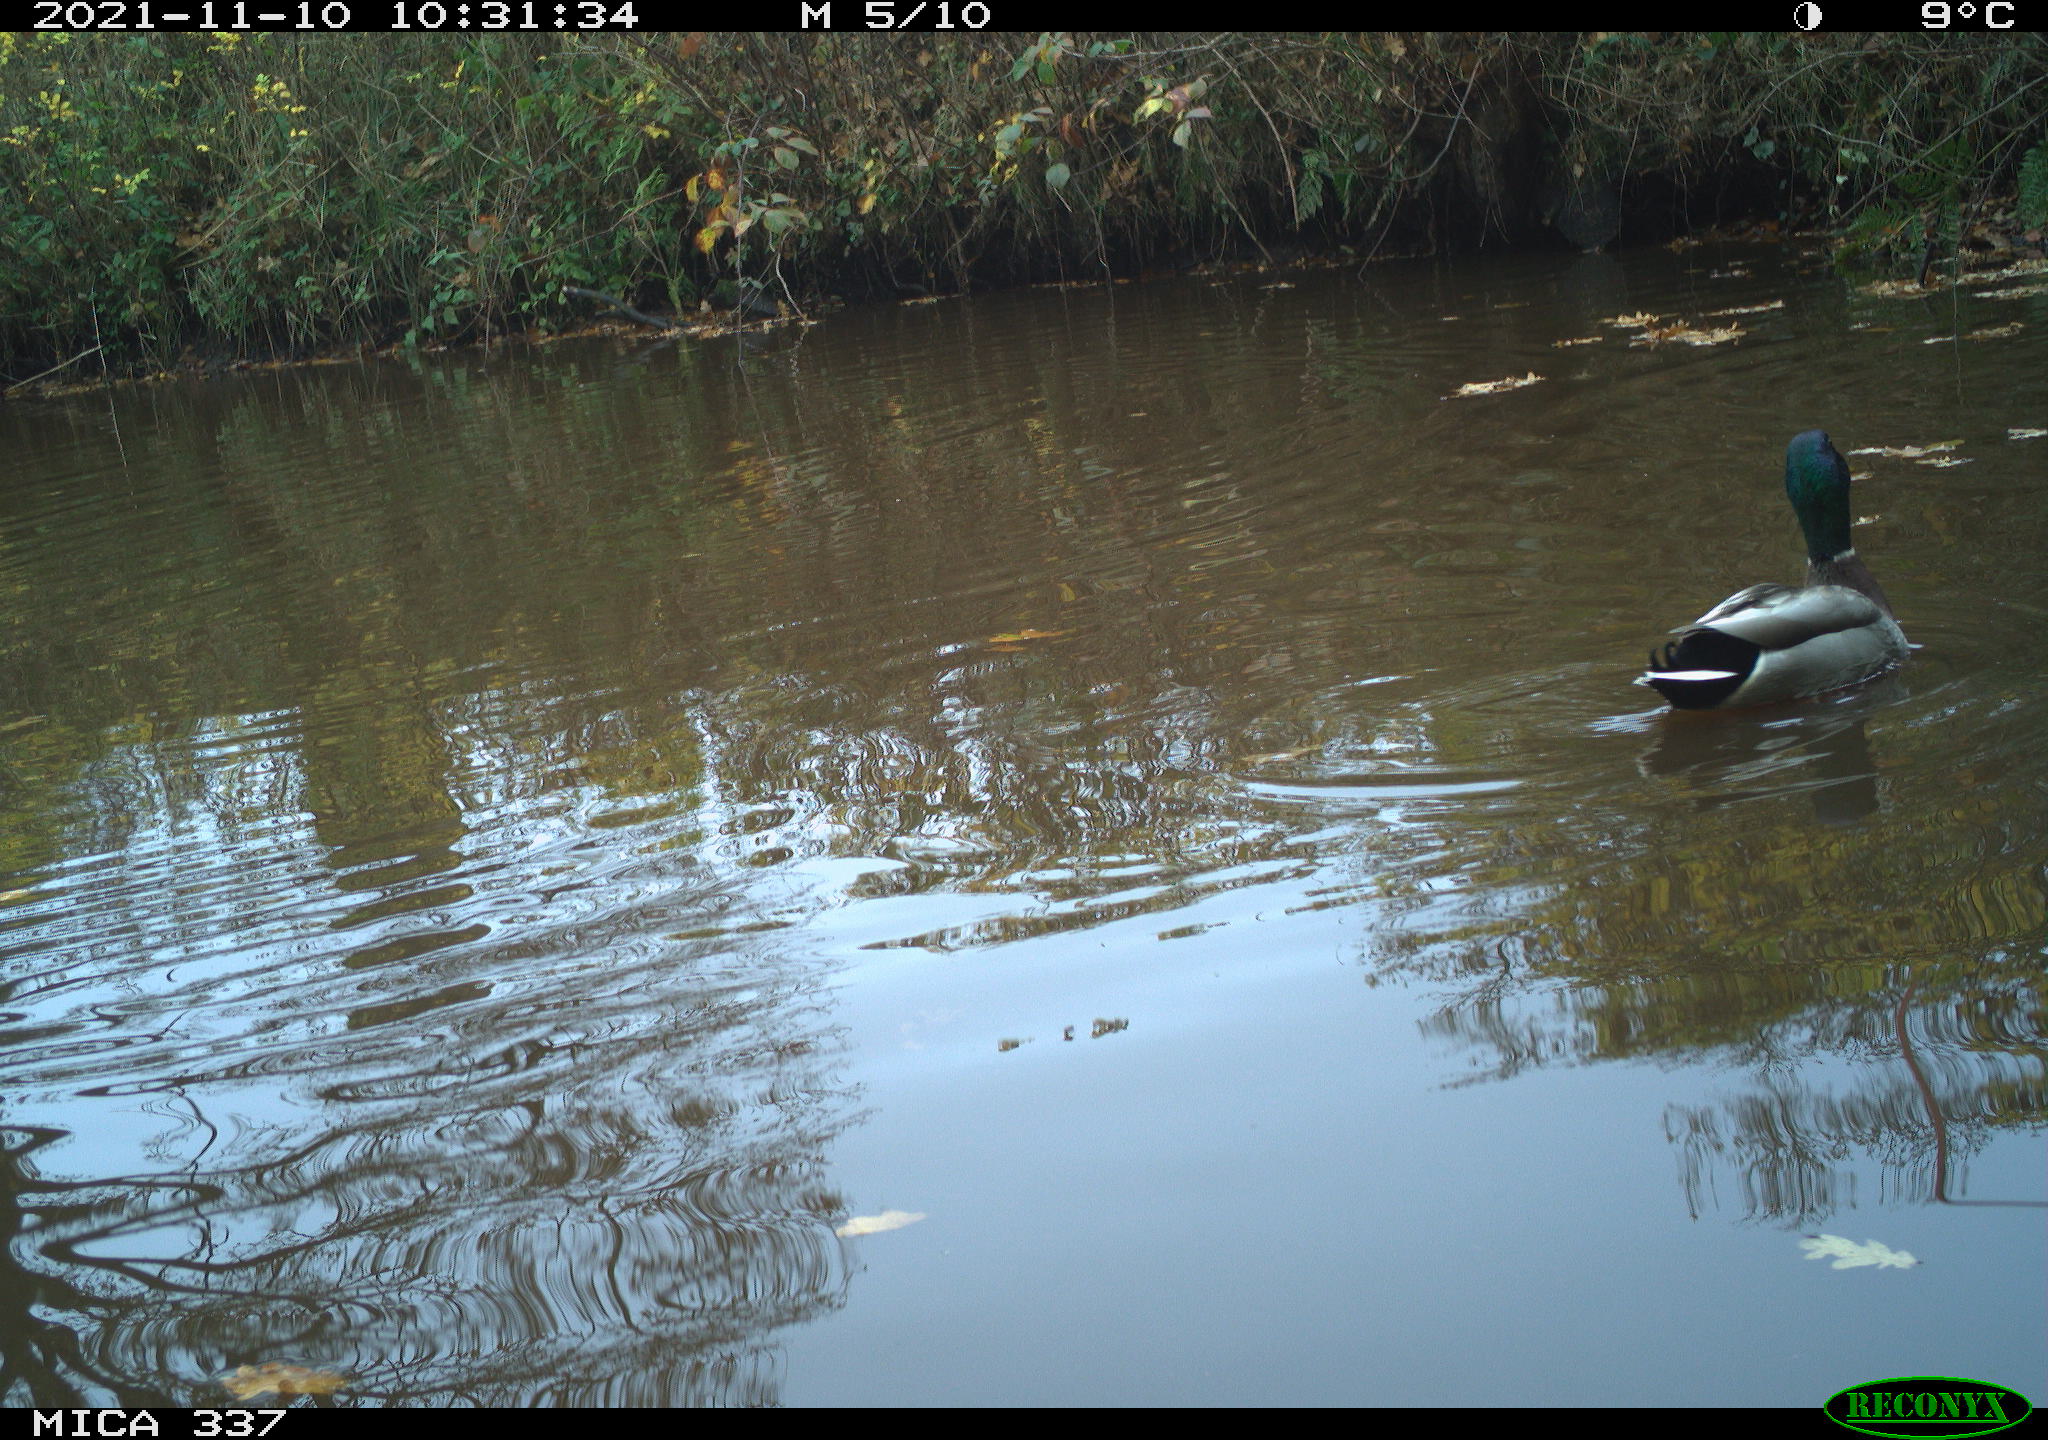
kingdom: Animalia
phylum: Chordata
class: Aves
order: Anseriformes
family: Anatidae
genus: Anas
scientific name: Anas platyrhynchos
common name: Mallard
